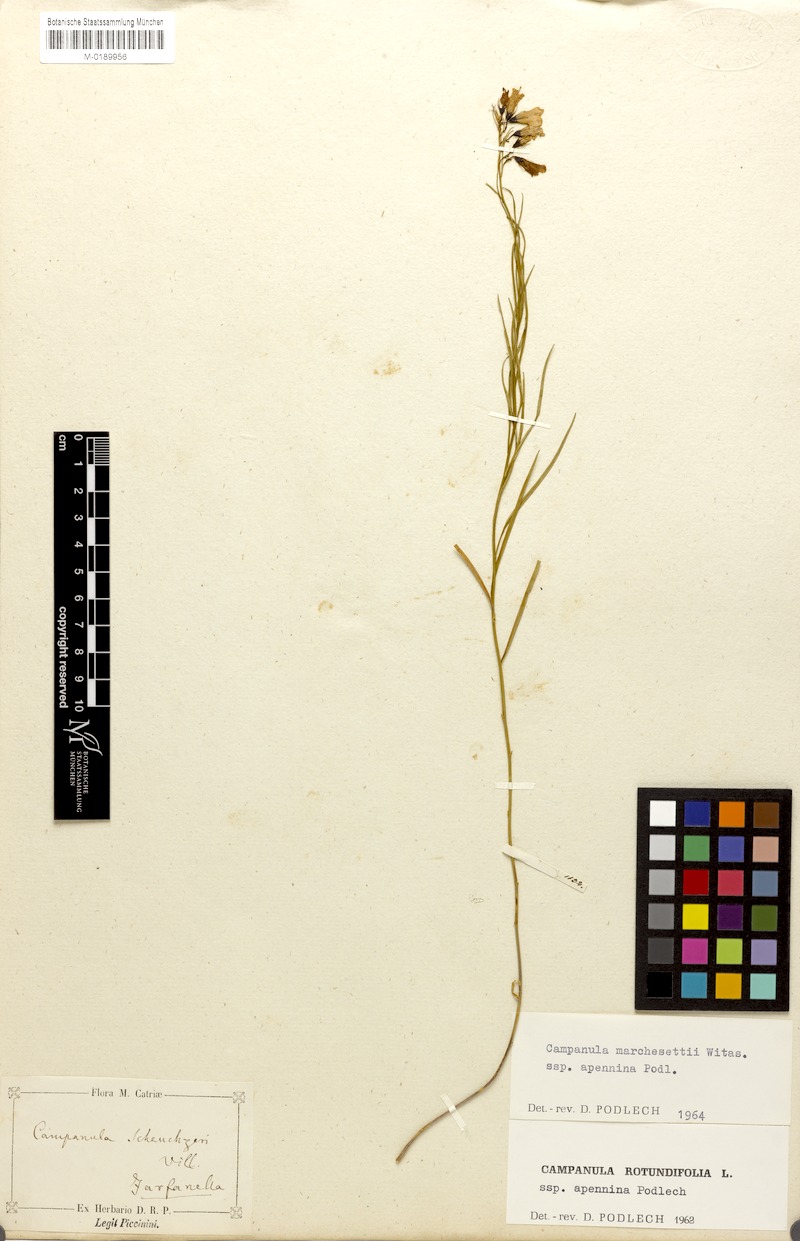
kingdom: Plantae
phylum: Tracheophyta
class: Magnoliopsida
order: Asterales
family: Campanulaceae
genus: Campanula
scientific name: Campanula micrantha
